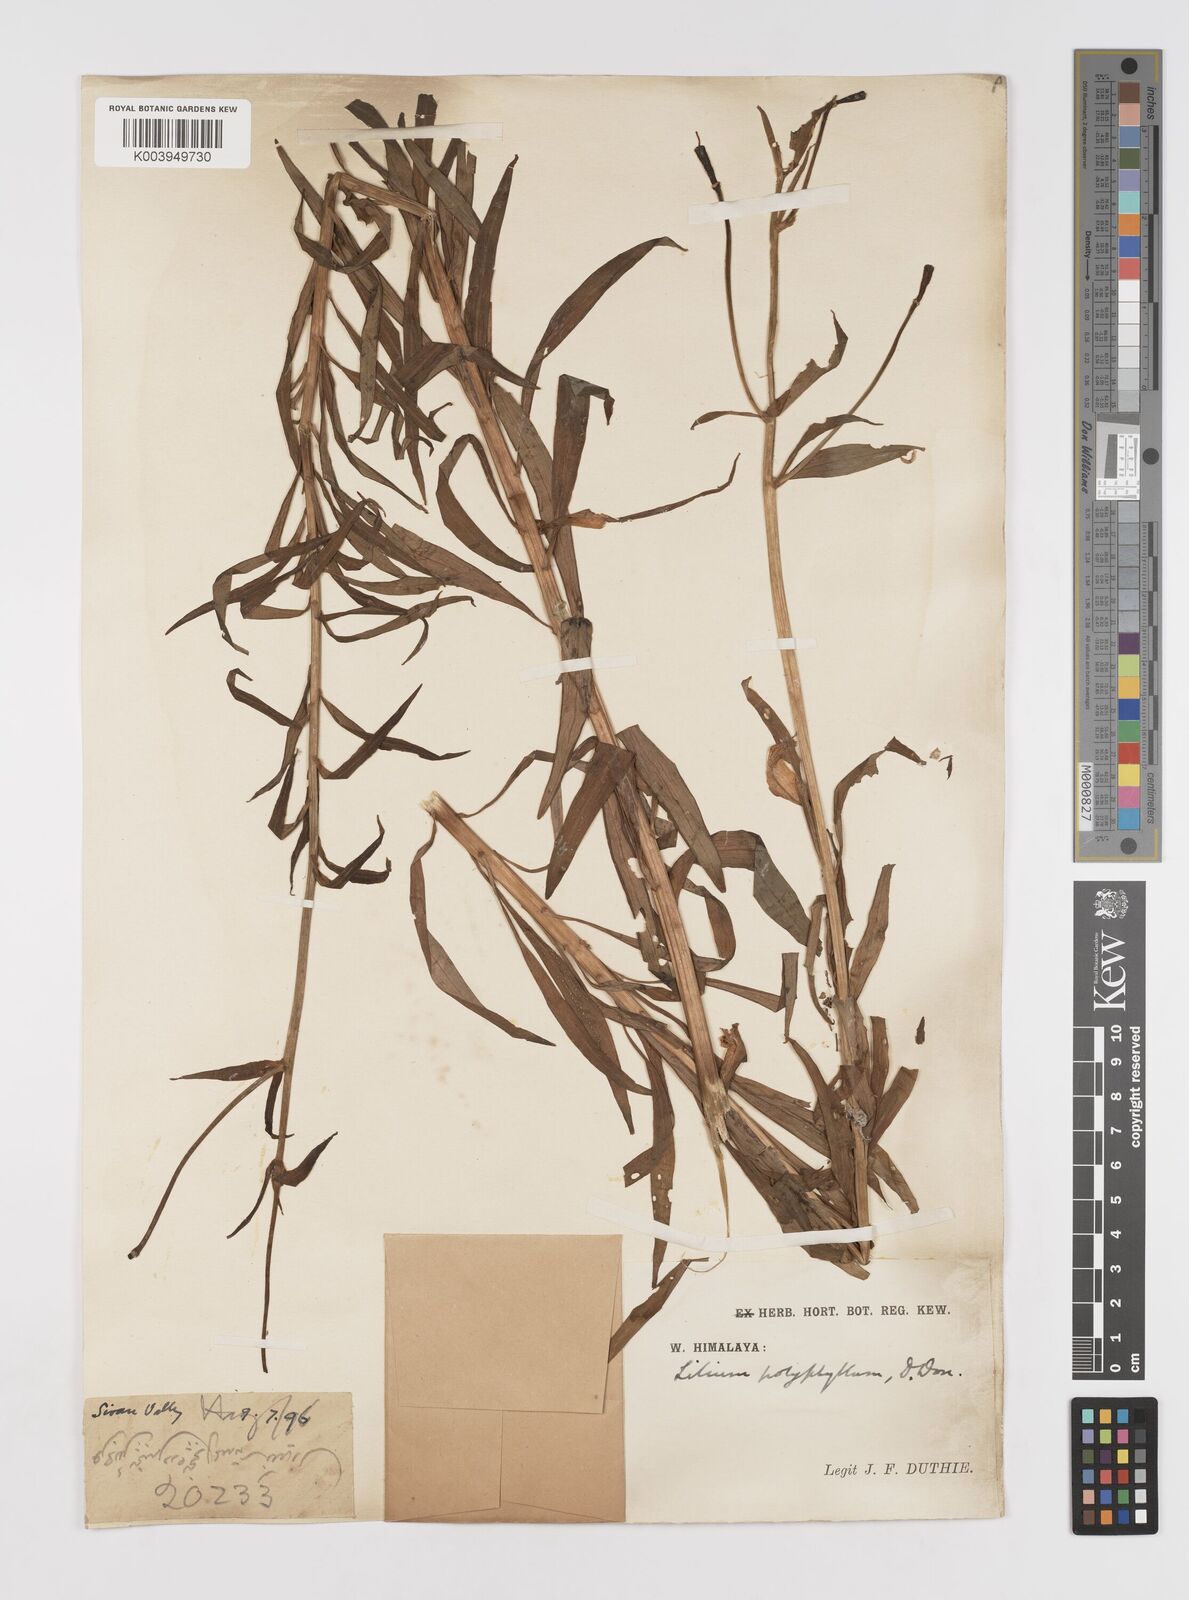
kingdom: Plantae
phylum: Tracheophyta
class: Liliopsida
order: Liliales
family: Liliaceae
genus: Lilium
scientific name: Lilium polyphyllum
